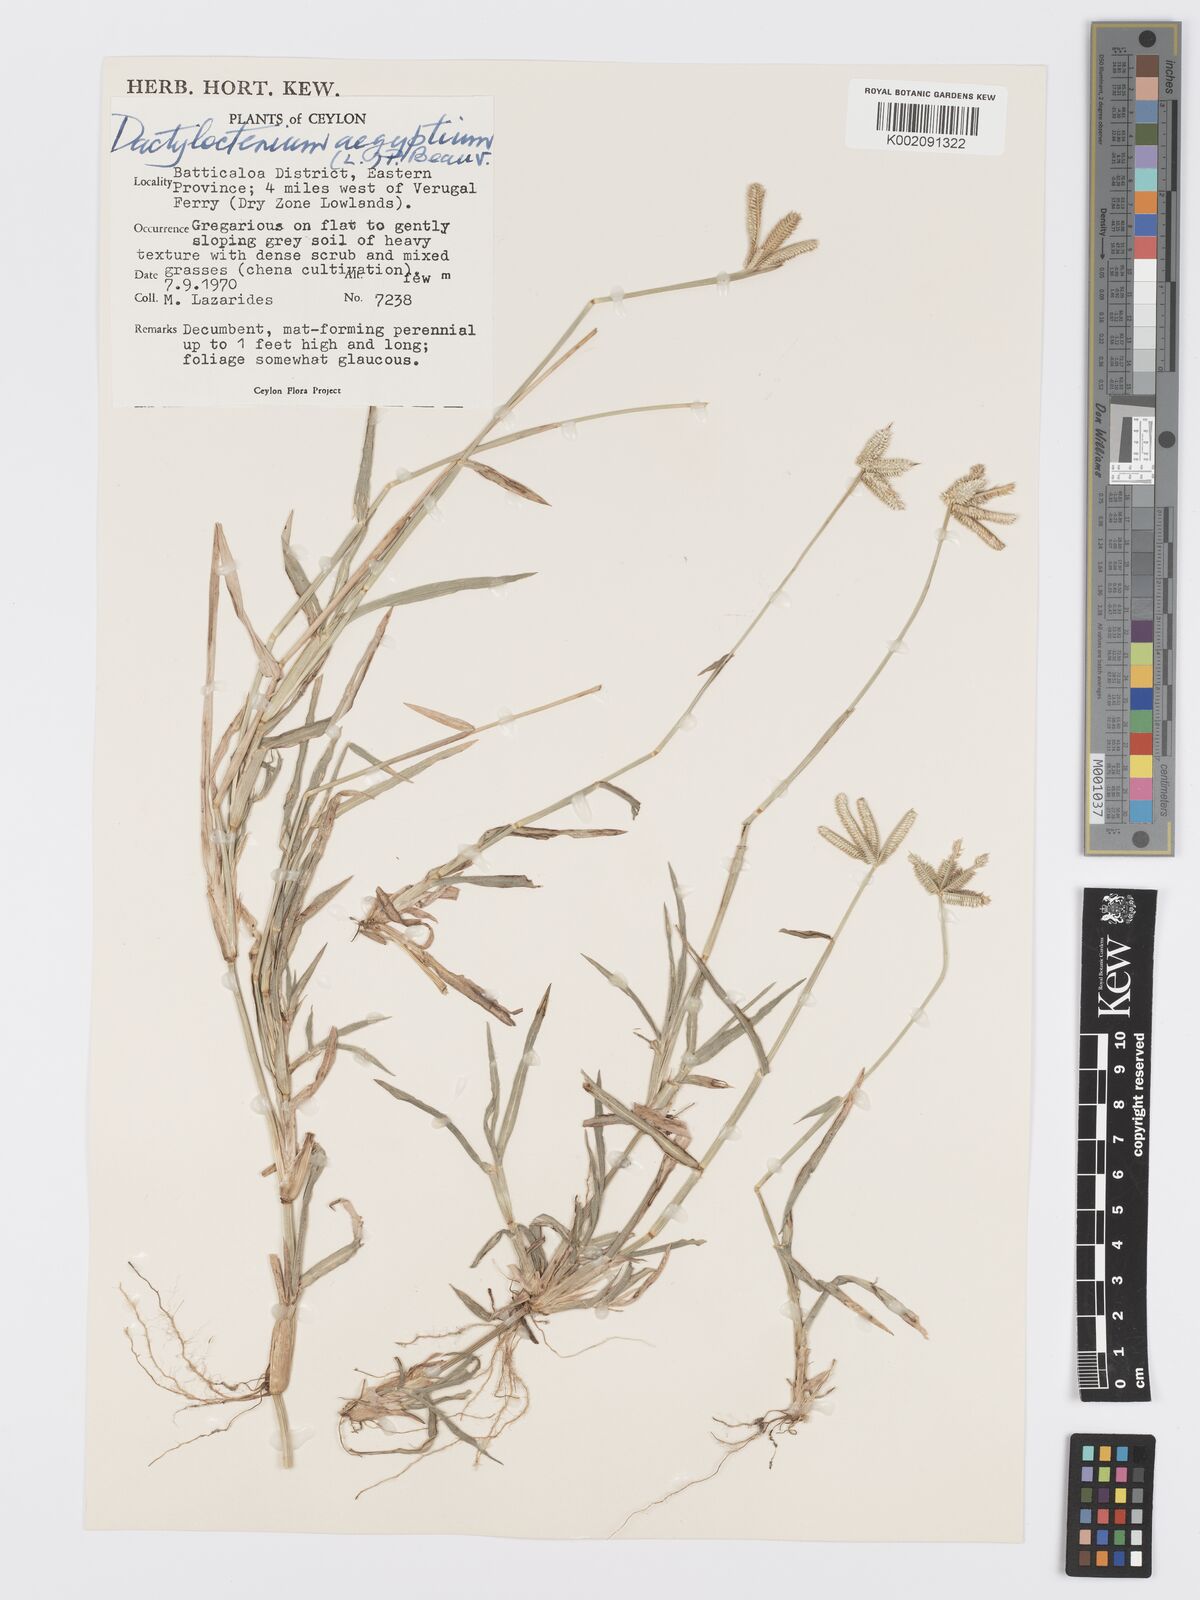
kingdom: Plantae
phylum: Tracheophyta
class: Liliopsida
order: Poales
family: Poaceae
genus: Dactyloctenium
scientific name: Dactyloctenium aegyptium
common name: Egyptian grass
